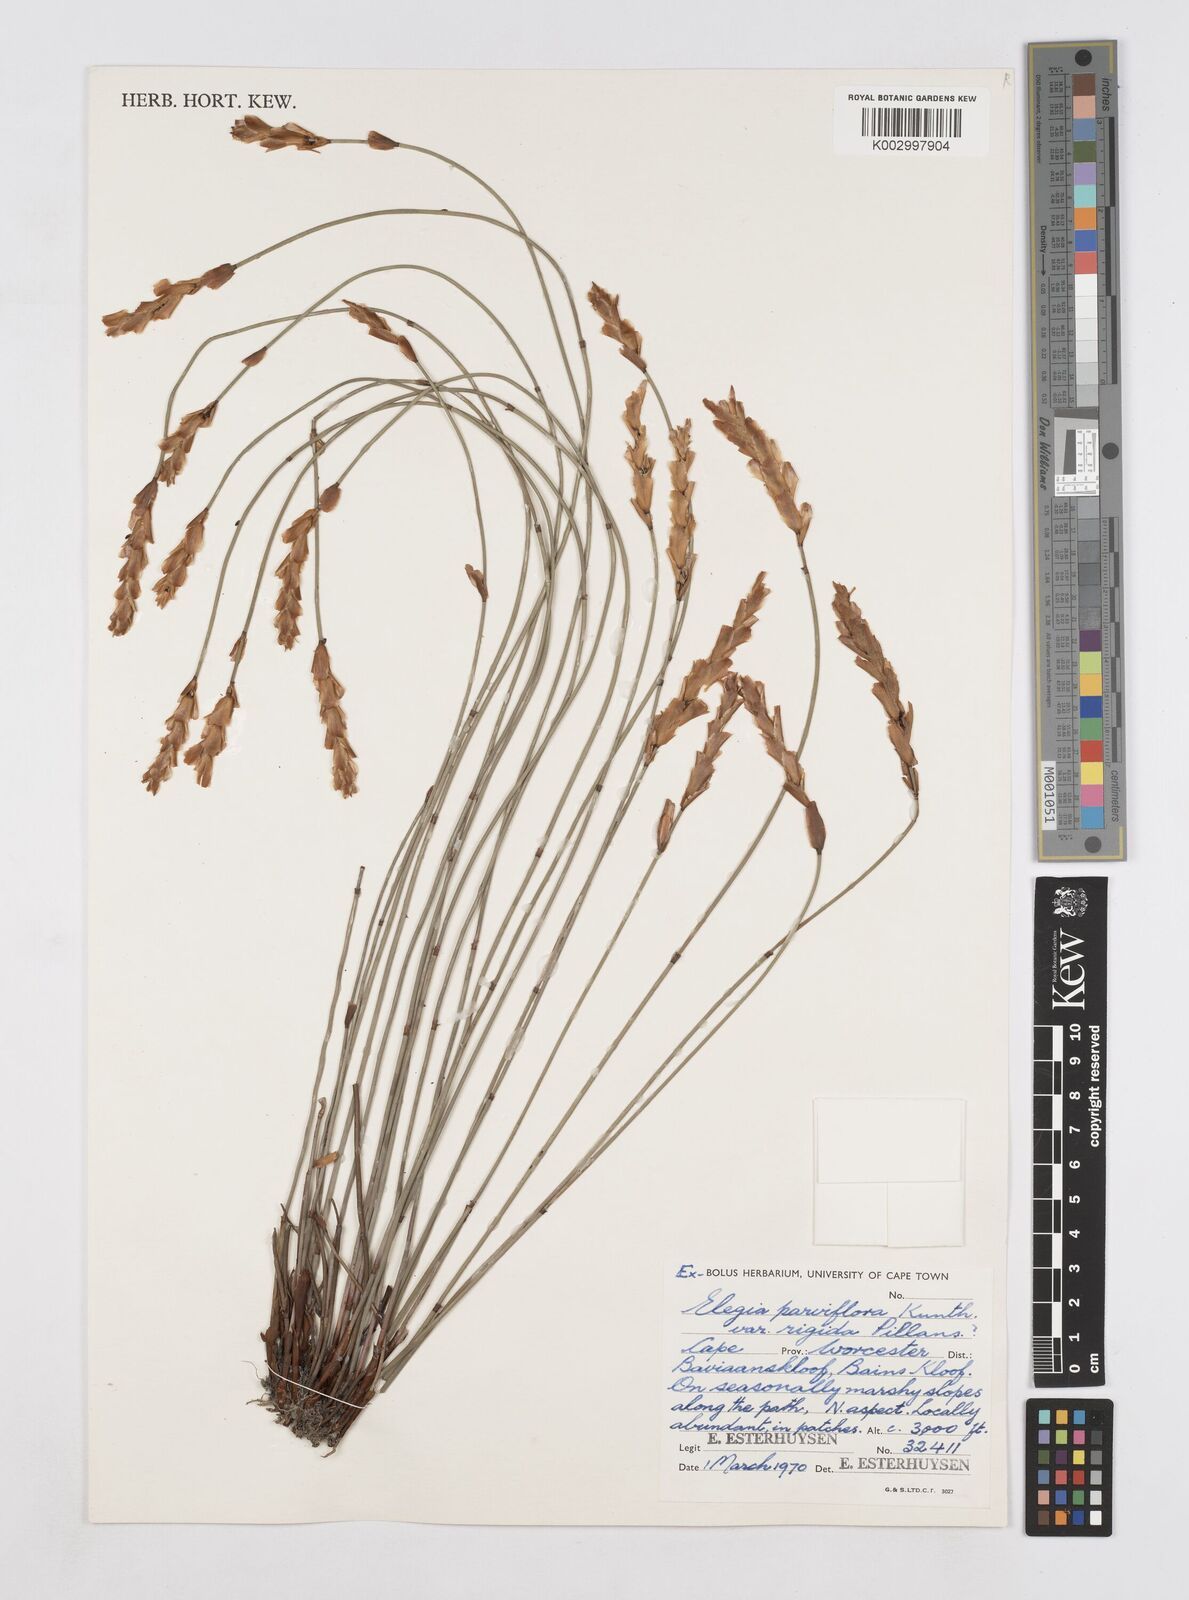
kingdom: Plantae
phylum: Tracheophyta
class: Liliopsida
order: Poales
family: Restionaceae
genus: Elegia
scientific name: Elegia rigida
